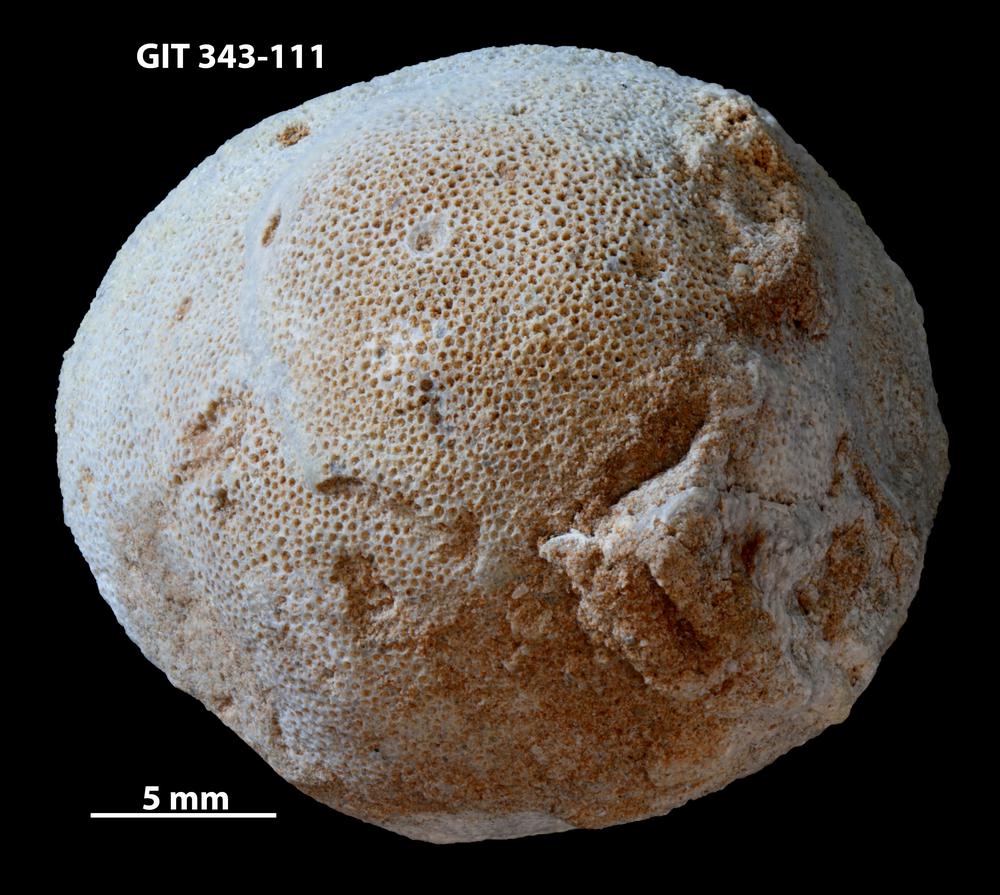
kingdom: Animalia
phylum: Bryozoa
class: Stenolaemata
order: Trepostomatida
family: Monticuliporidae
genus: Mesotrypa
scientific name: Mesotrypa excentrica
